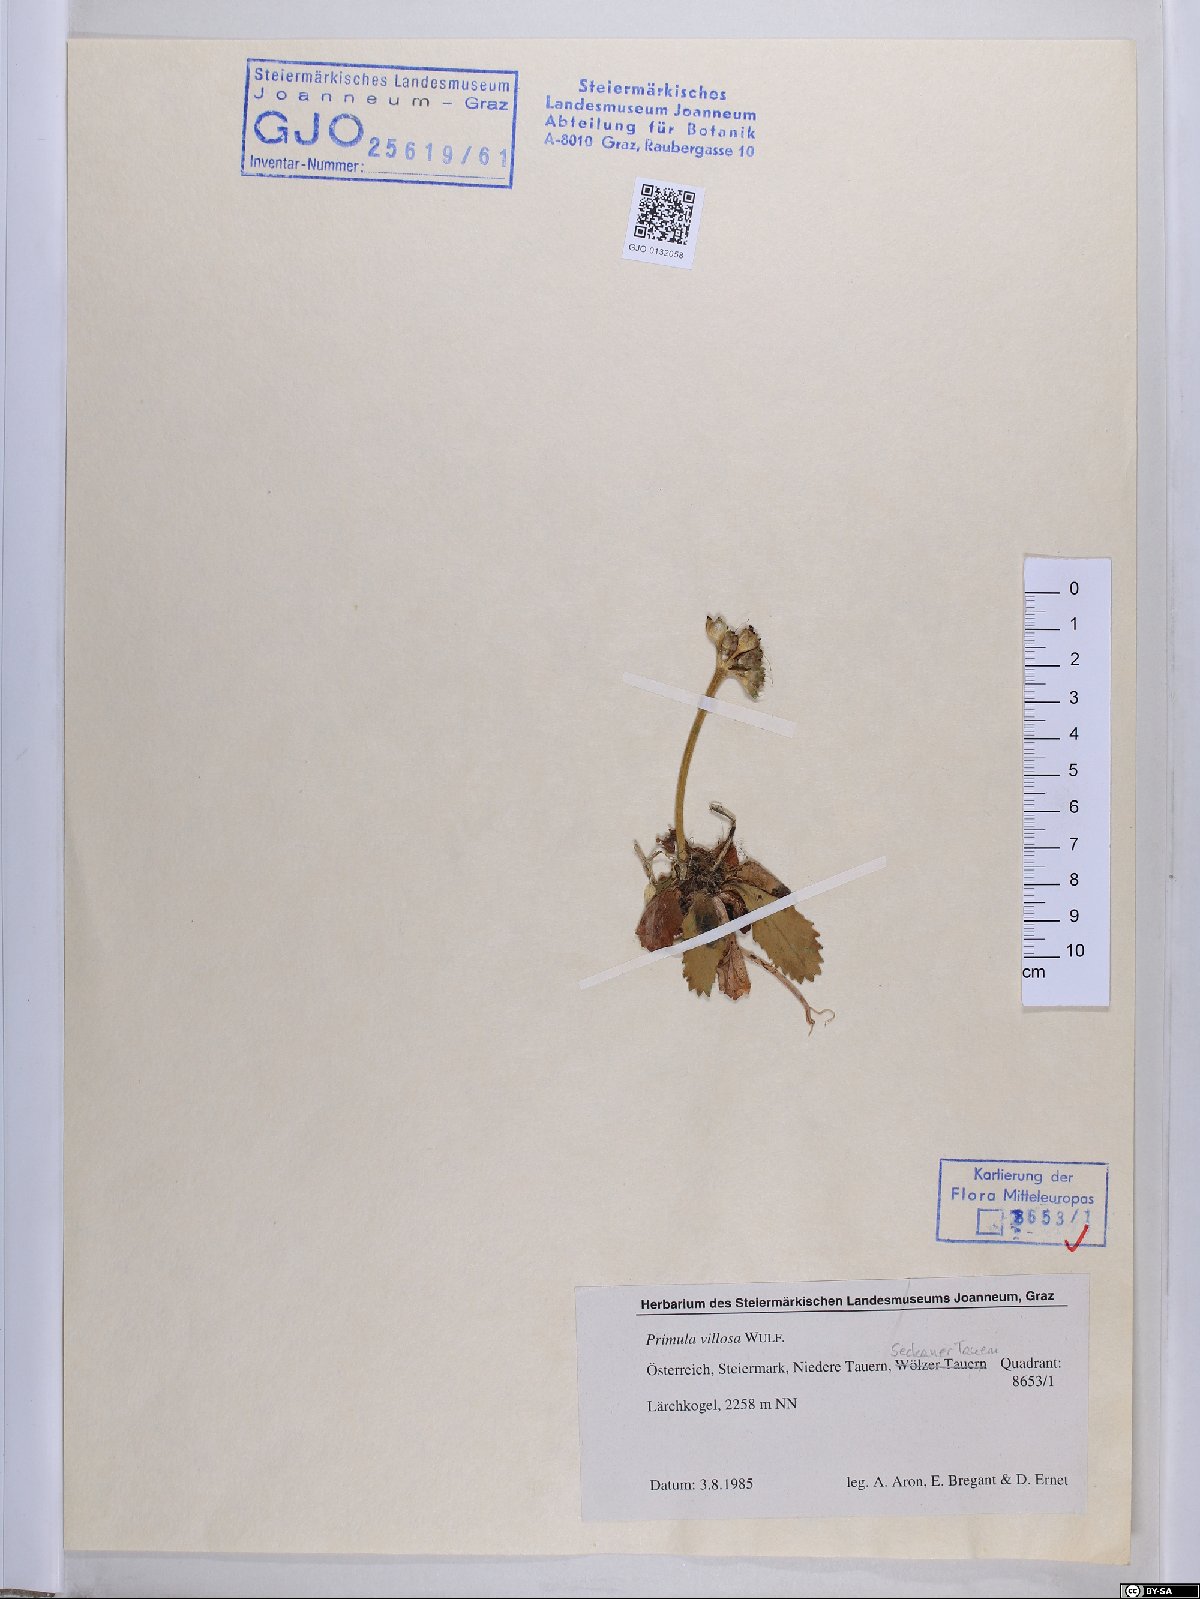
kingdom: Plantae
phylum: Tracheophyta
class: Magnoliopsida
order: Ericales
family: Primulaceae
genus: Primula
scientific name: Primula villosa
